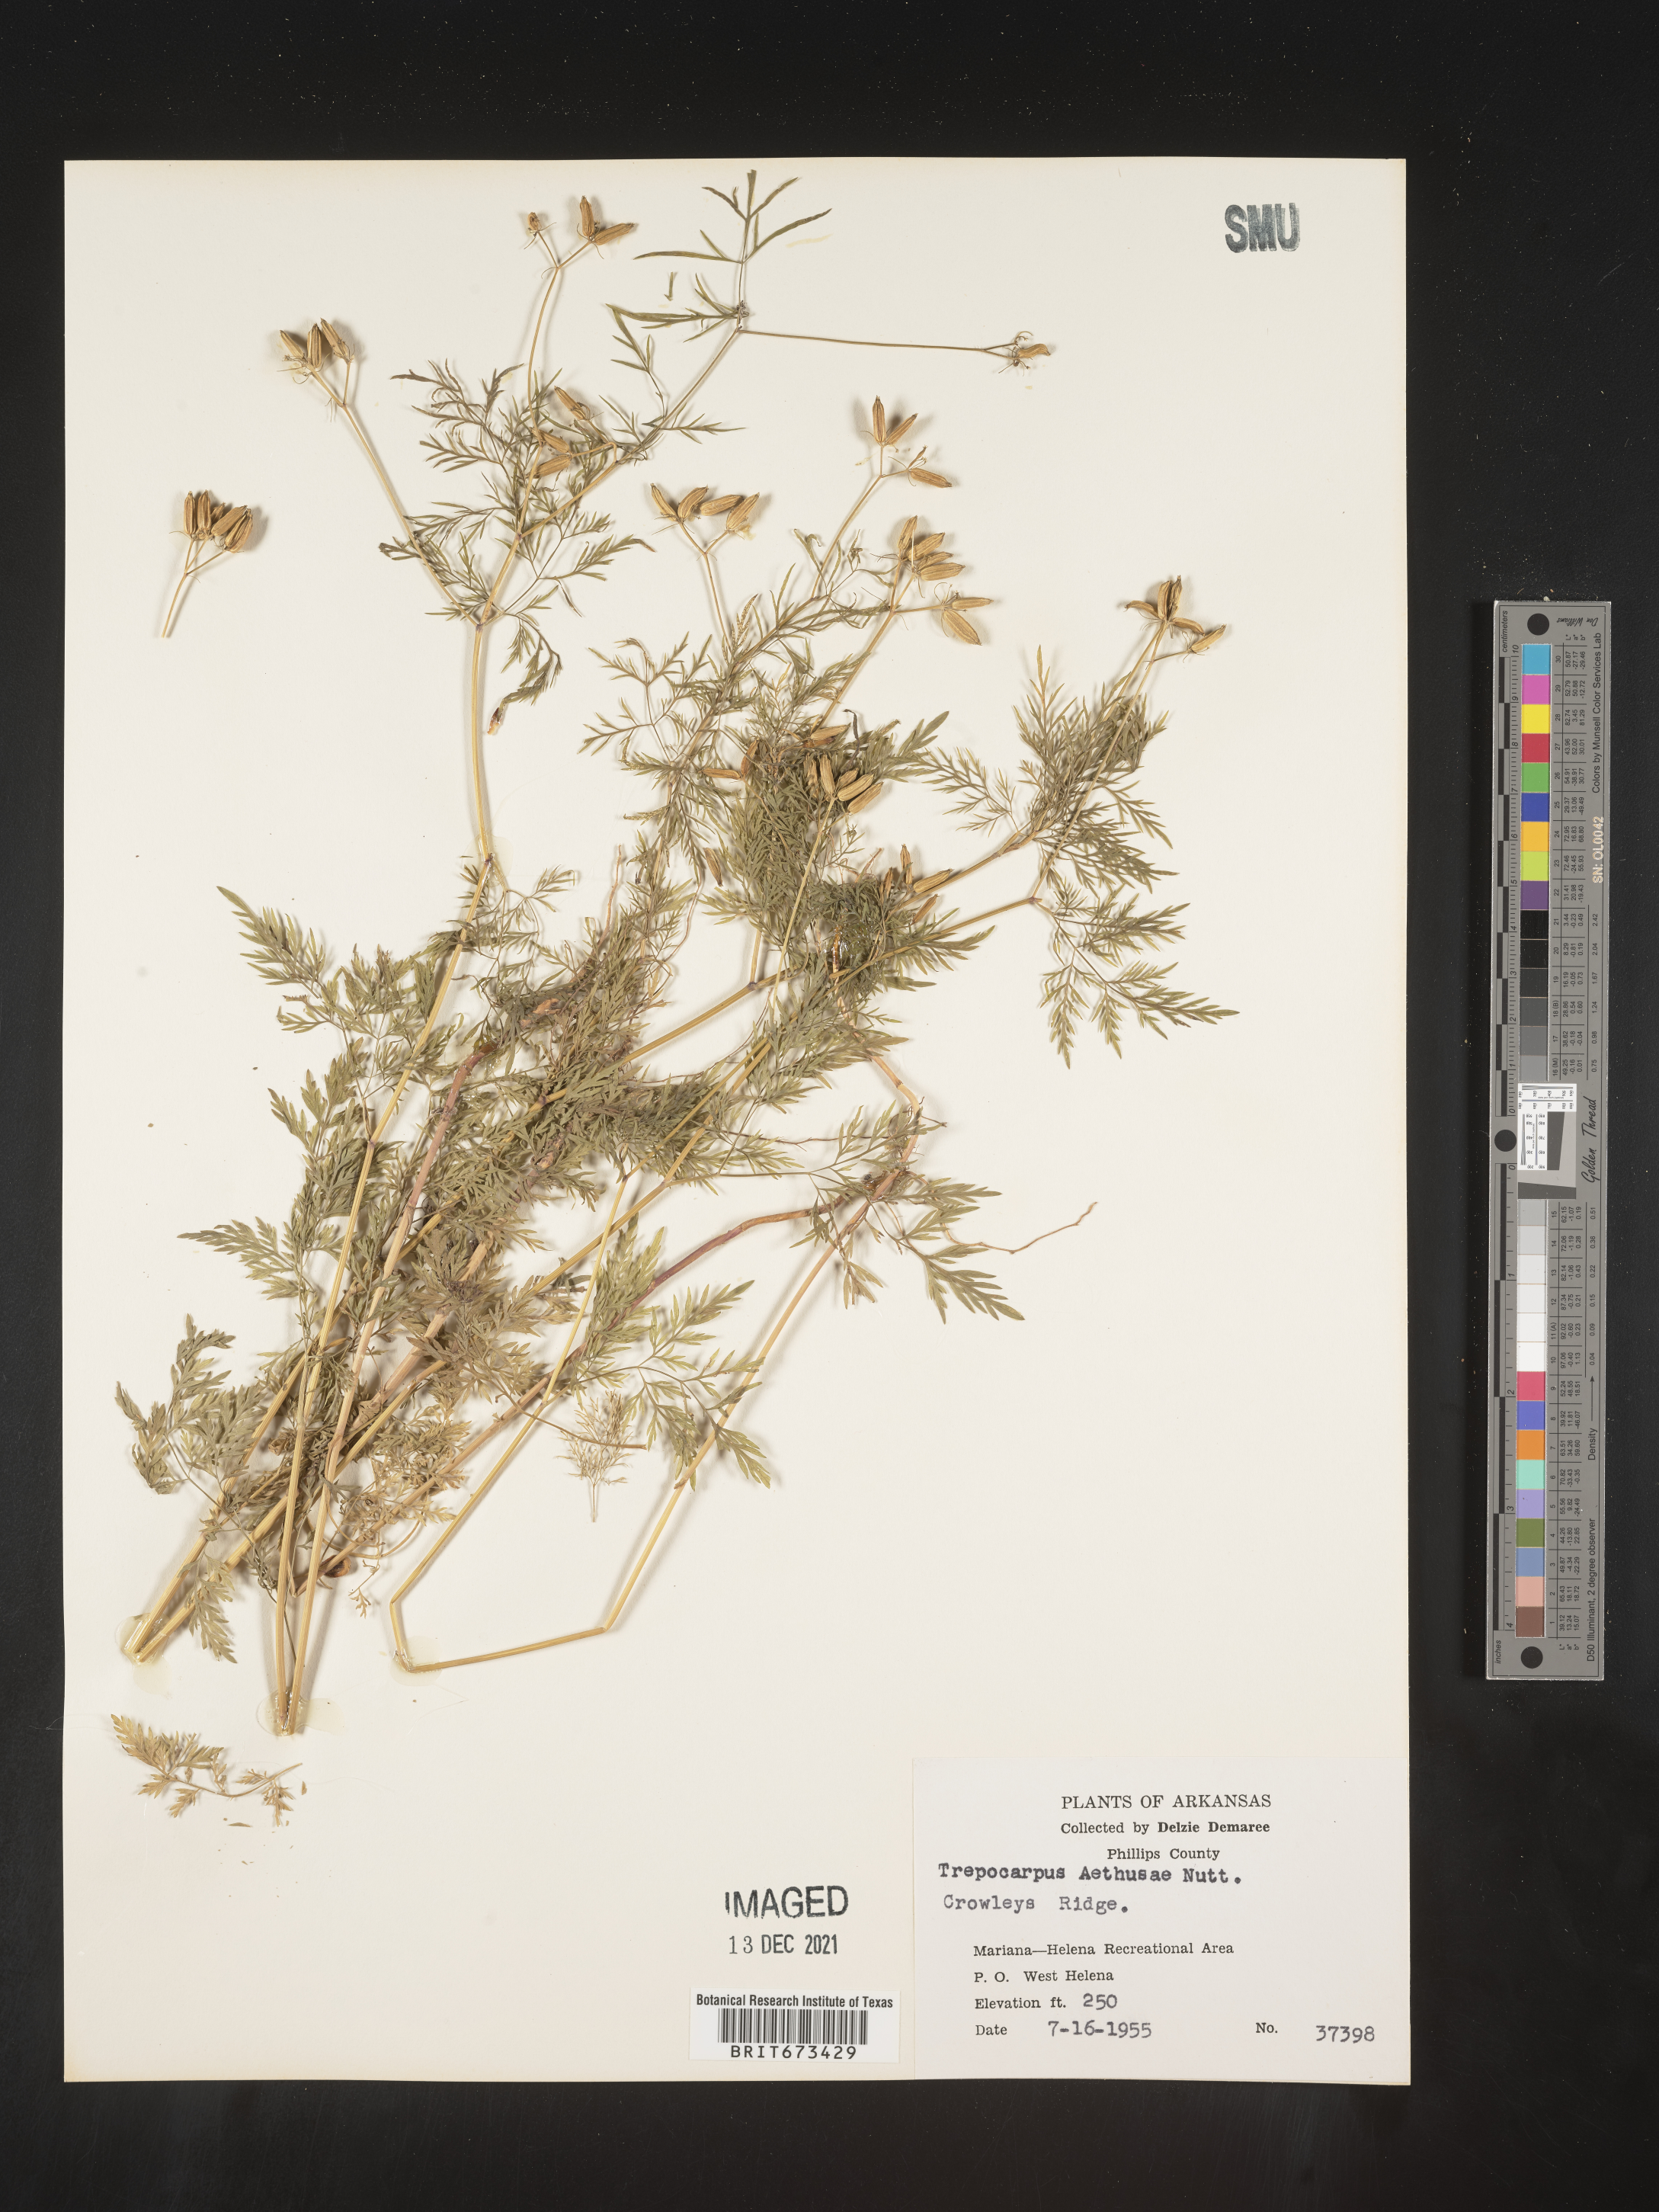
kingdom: Plantae
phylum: Tracheophyta
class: Magnoliopsida
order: Apiales
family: Apiaceae
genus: Trepocarpus
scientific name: Trepocarpus aethusae
